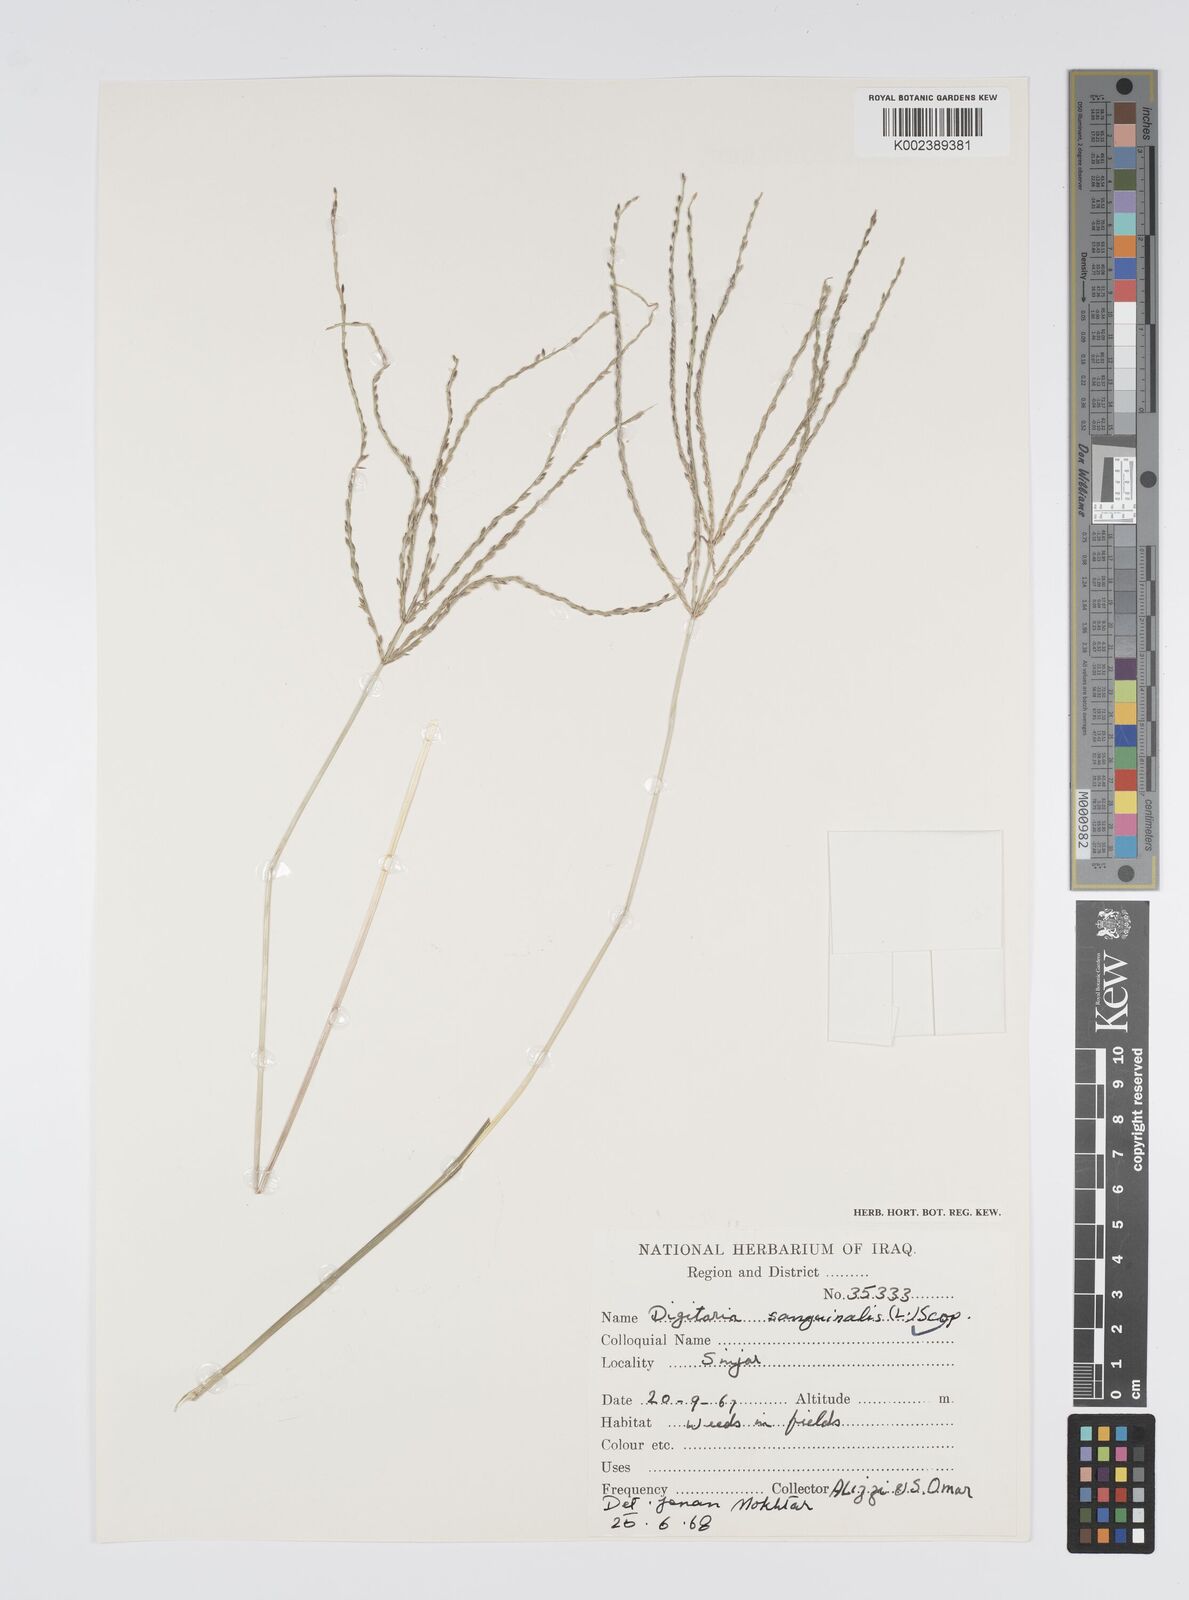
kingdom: Plantae
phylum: Tracheophyta
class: Liliopsida
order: Poales
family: Poaceae
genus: Digitaria
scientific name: Digitaria sanguinalis
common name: Hairy crabgrass
